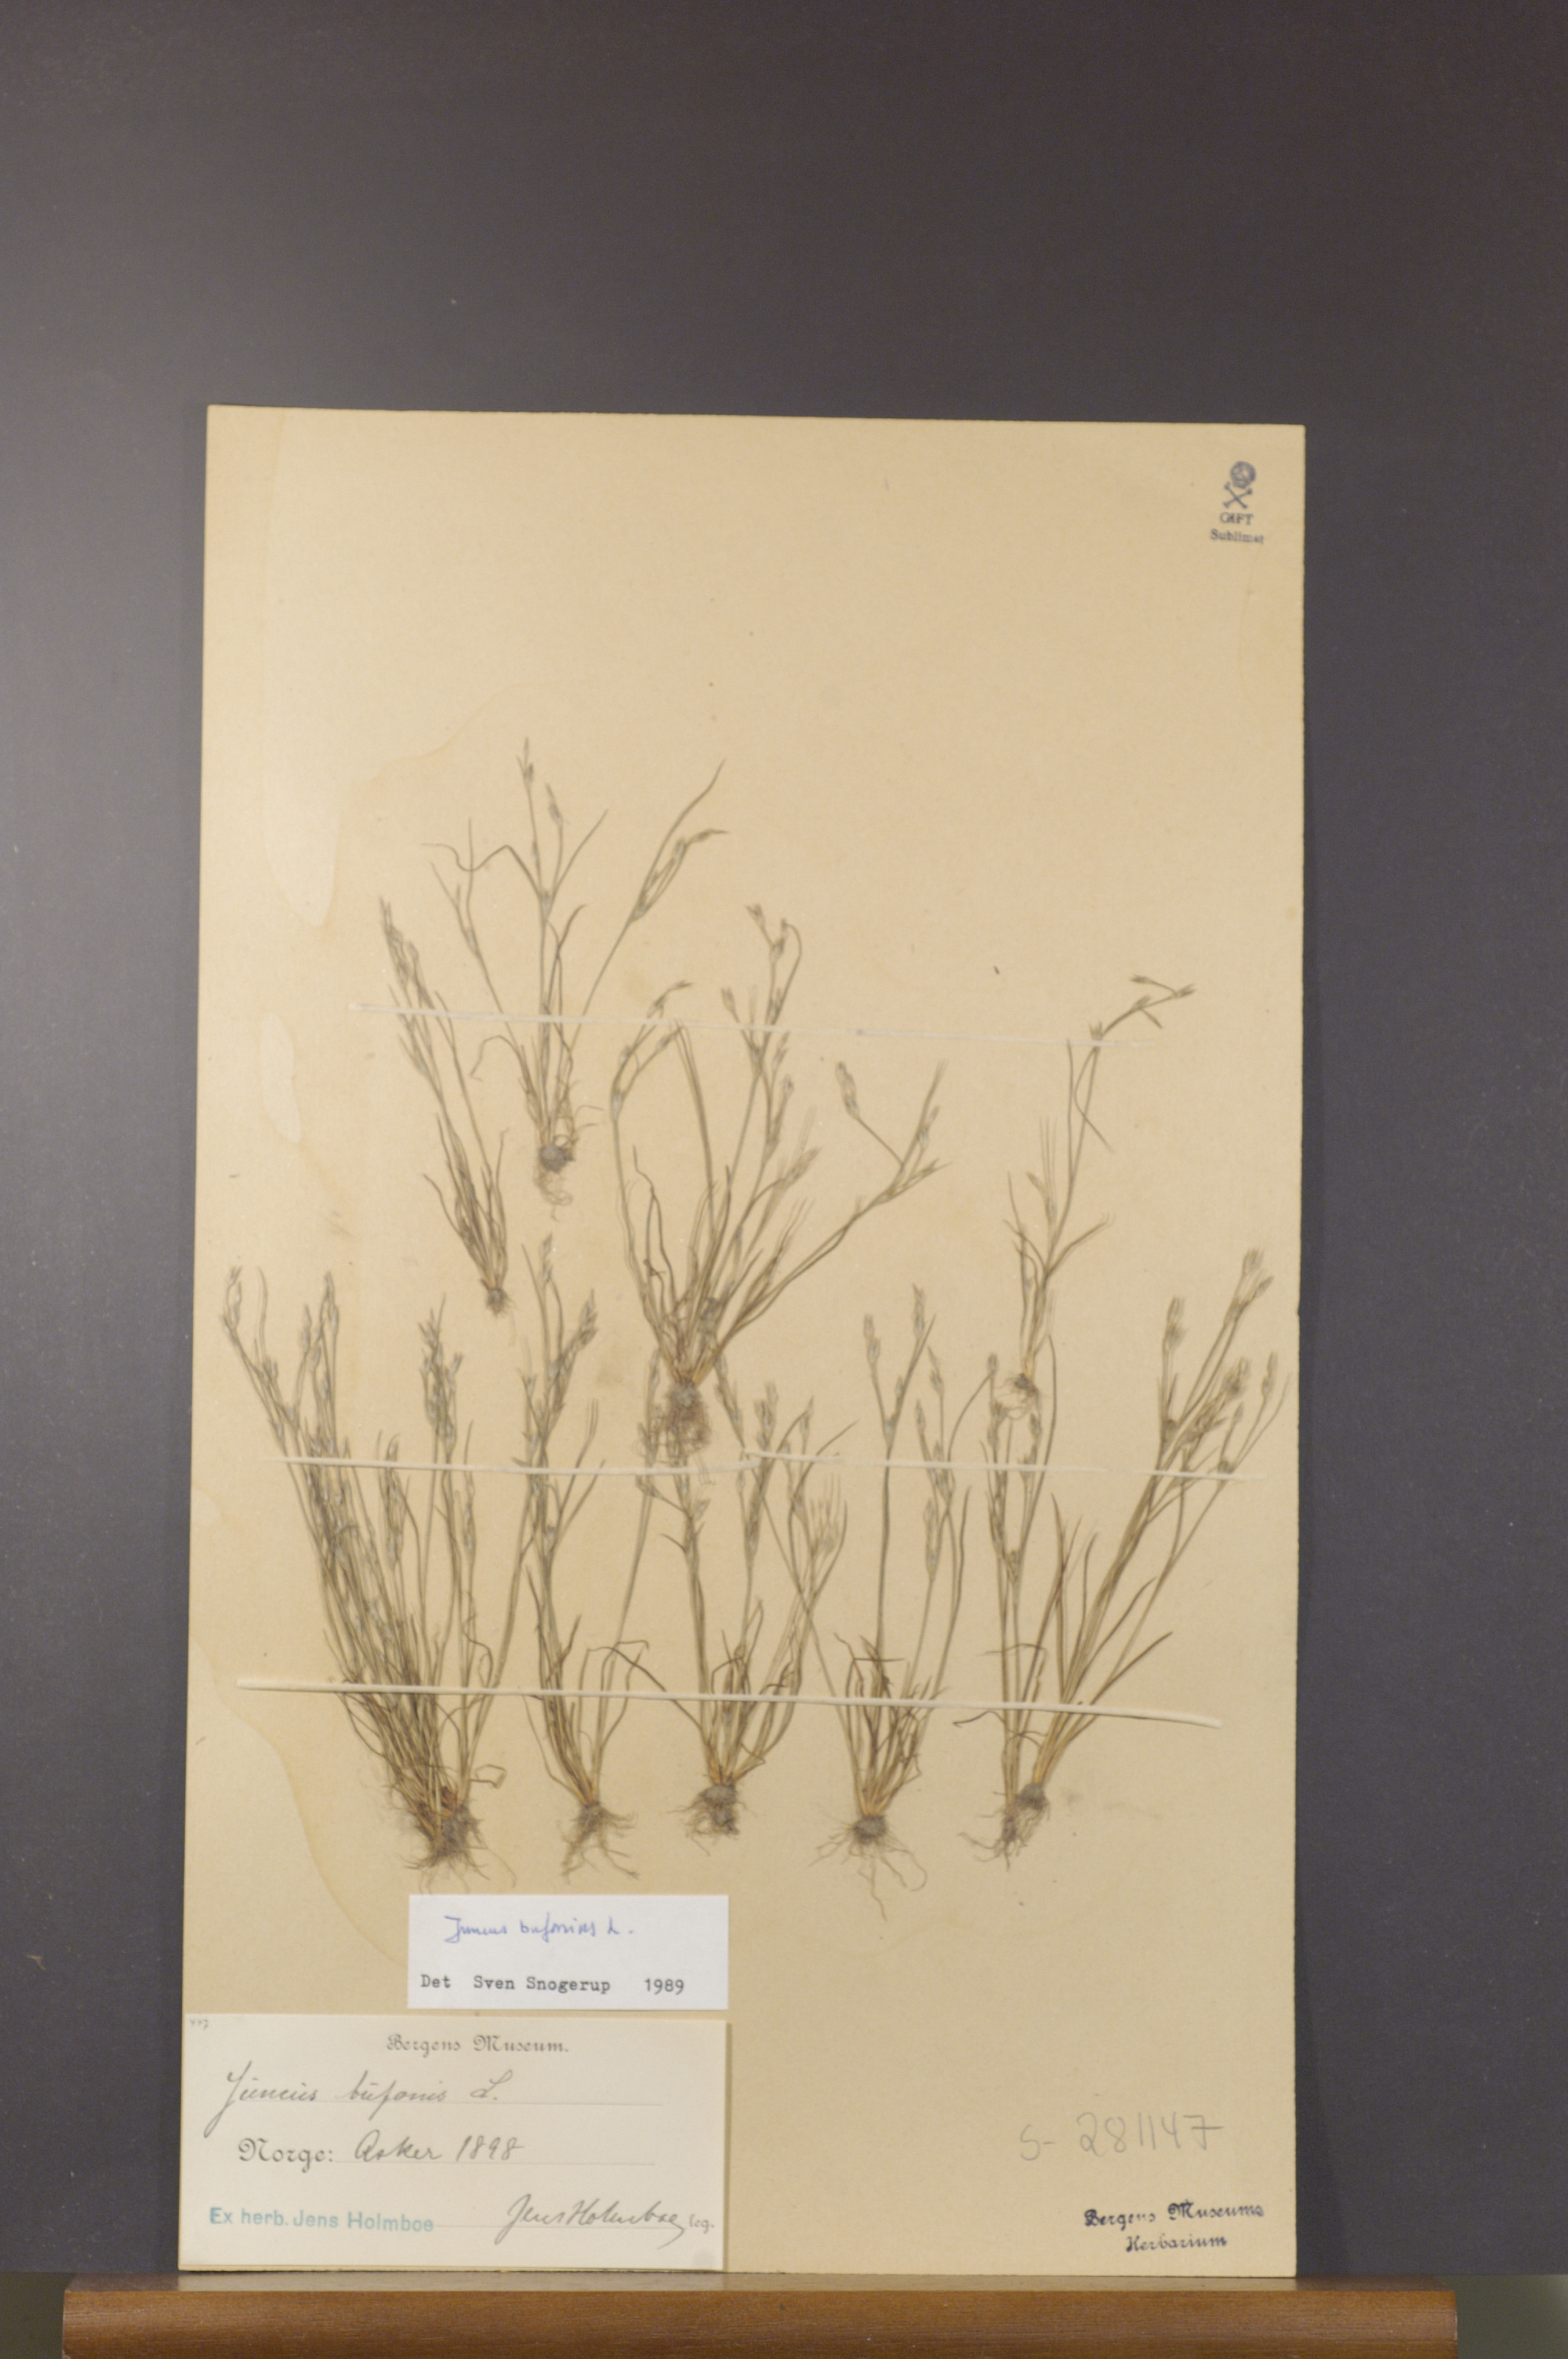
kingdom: Plantae
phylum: Tracheophyta
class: Liliopsida
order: Poales
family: Juncaceae
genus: Juncus
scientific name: Juncus bufonius
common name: Toad rush
